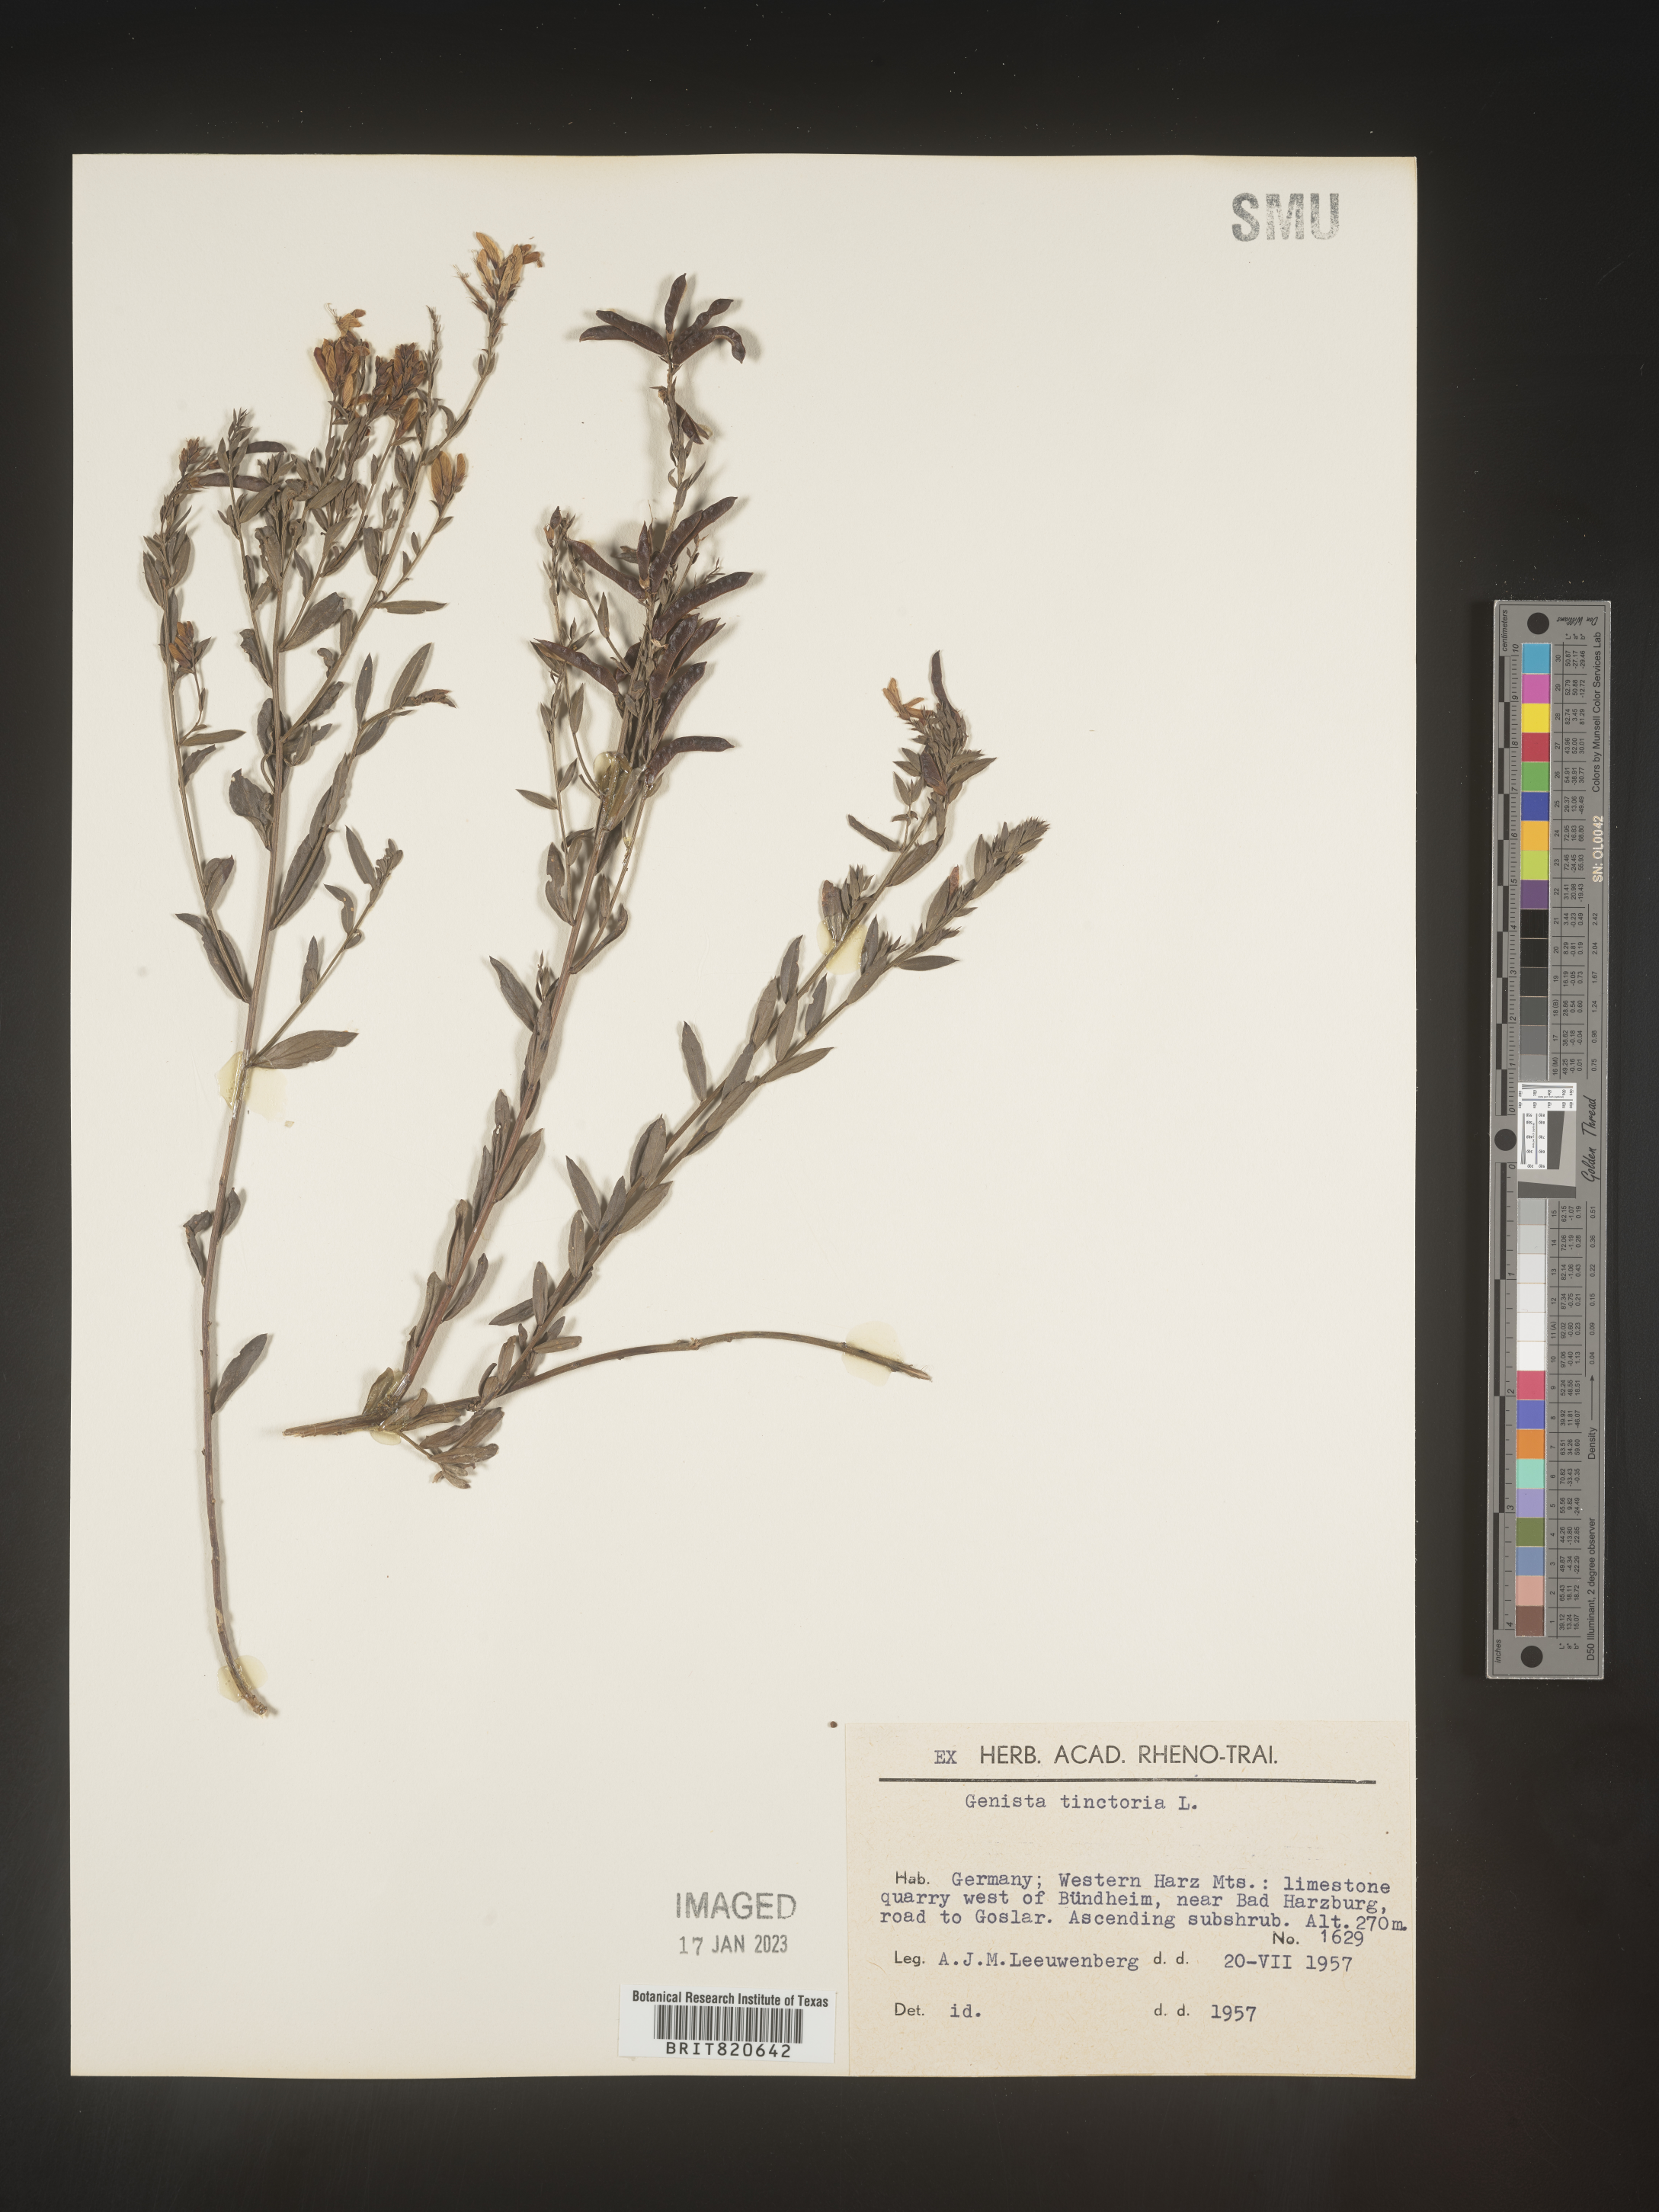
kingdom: Plantae
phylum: Tracheophyta
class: Magnoliopsida
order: Fabales
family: Fabaceae
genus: Genista
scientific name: Genista tinctoria
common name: Dyer's greenweed
